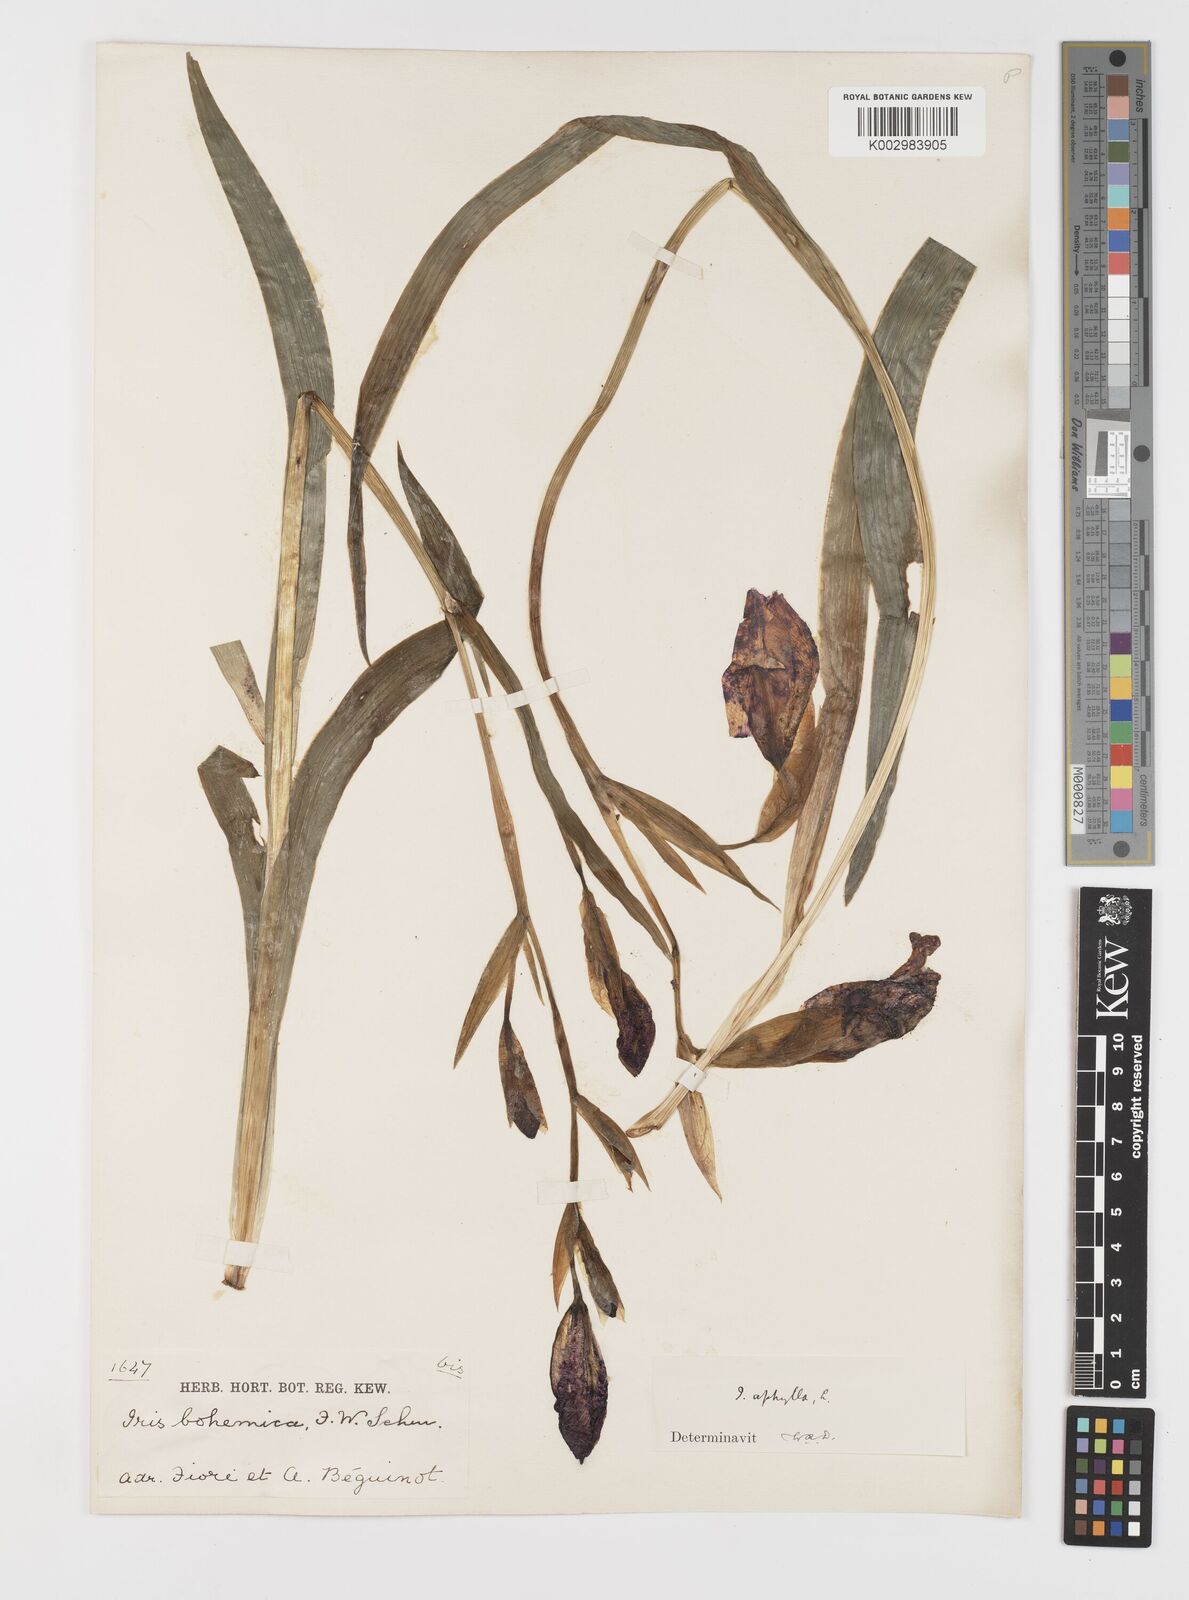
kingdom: Plantae
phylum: Tracheophyta
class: Liliopsida
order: Asparagales
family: Iridaceae
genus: Iris
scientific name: Iris perrieri
